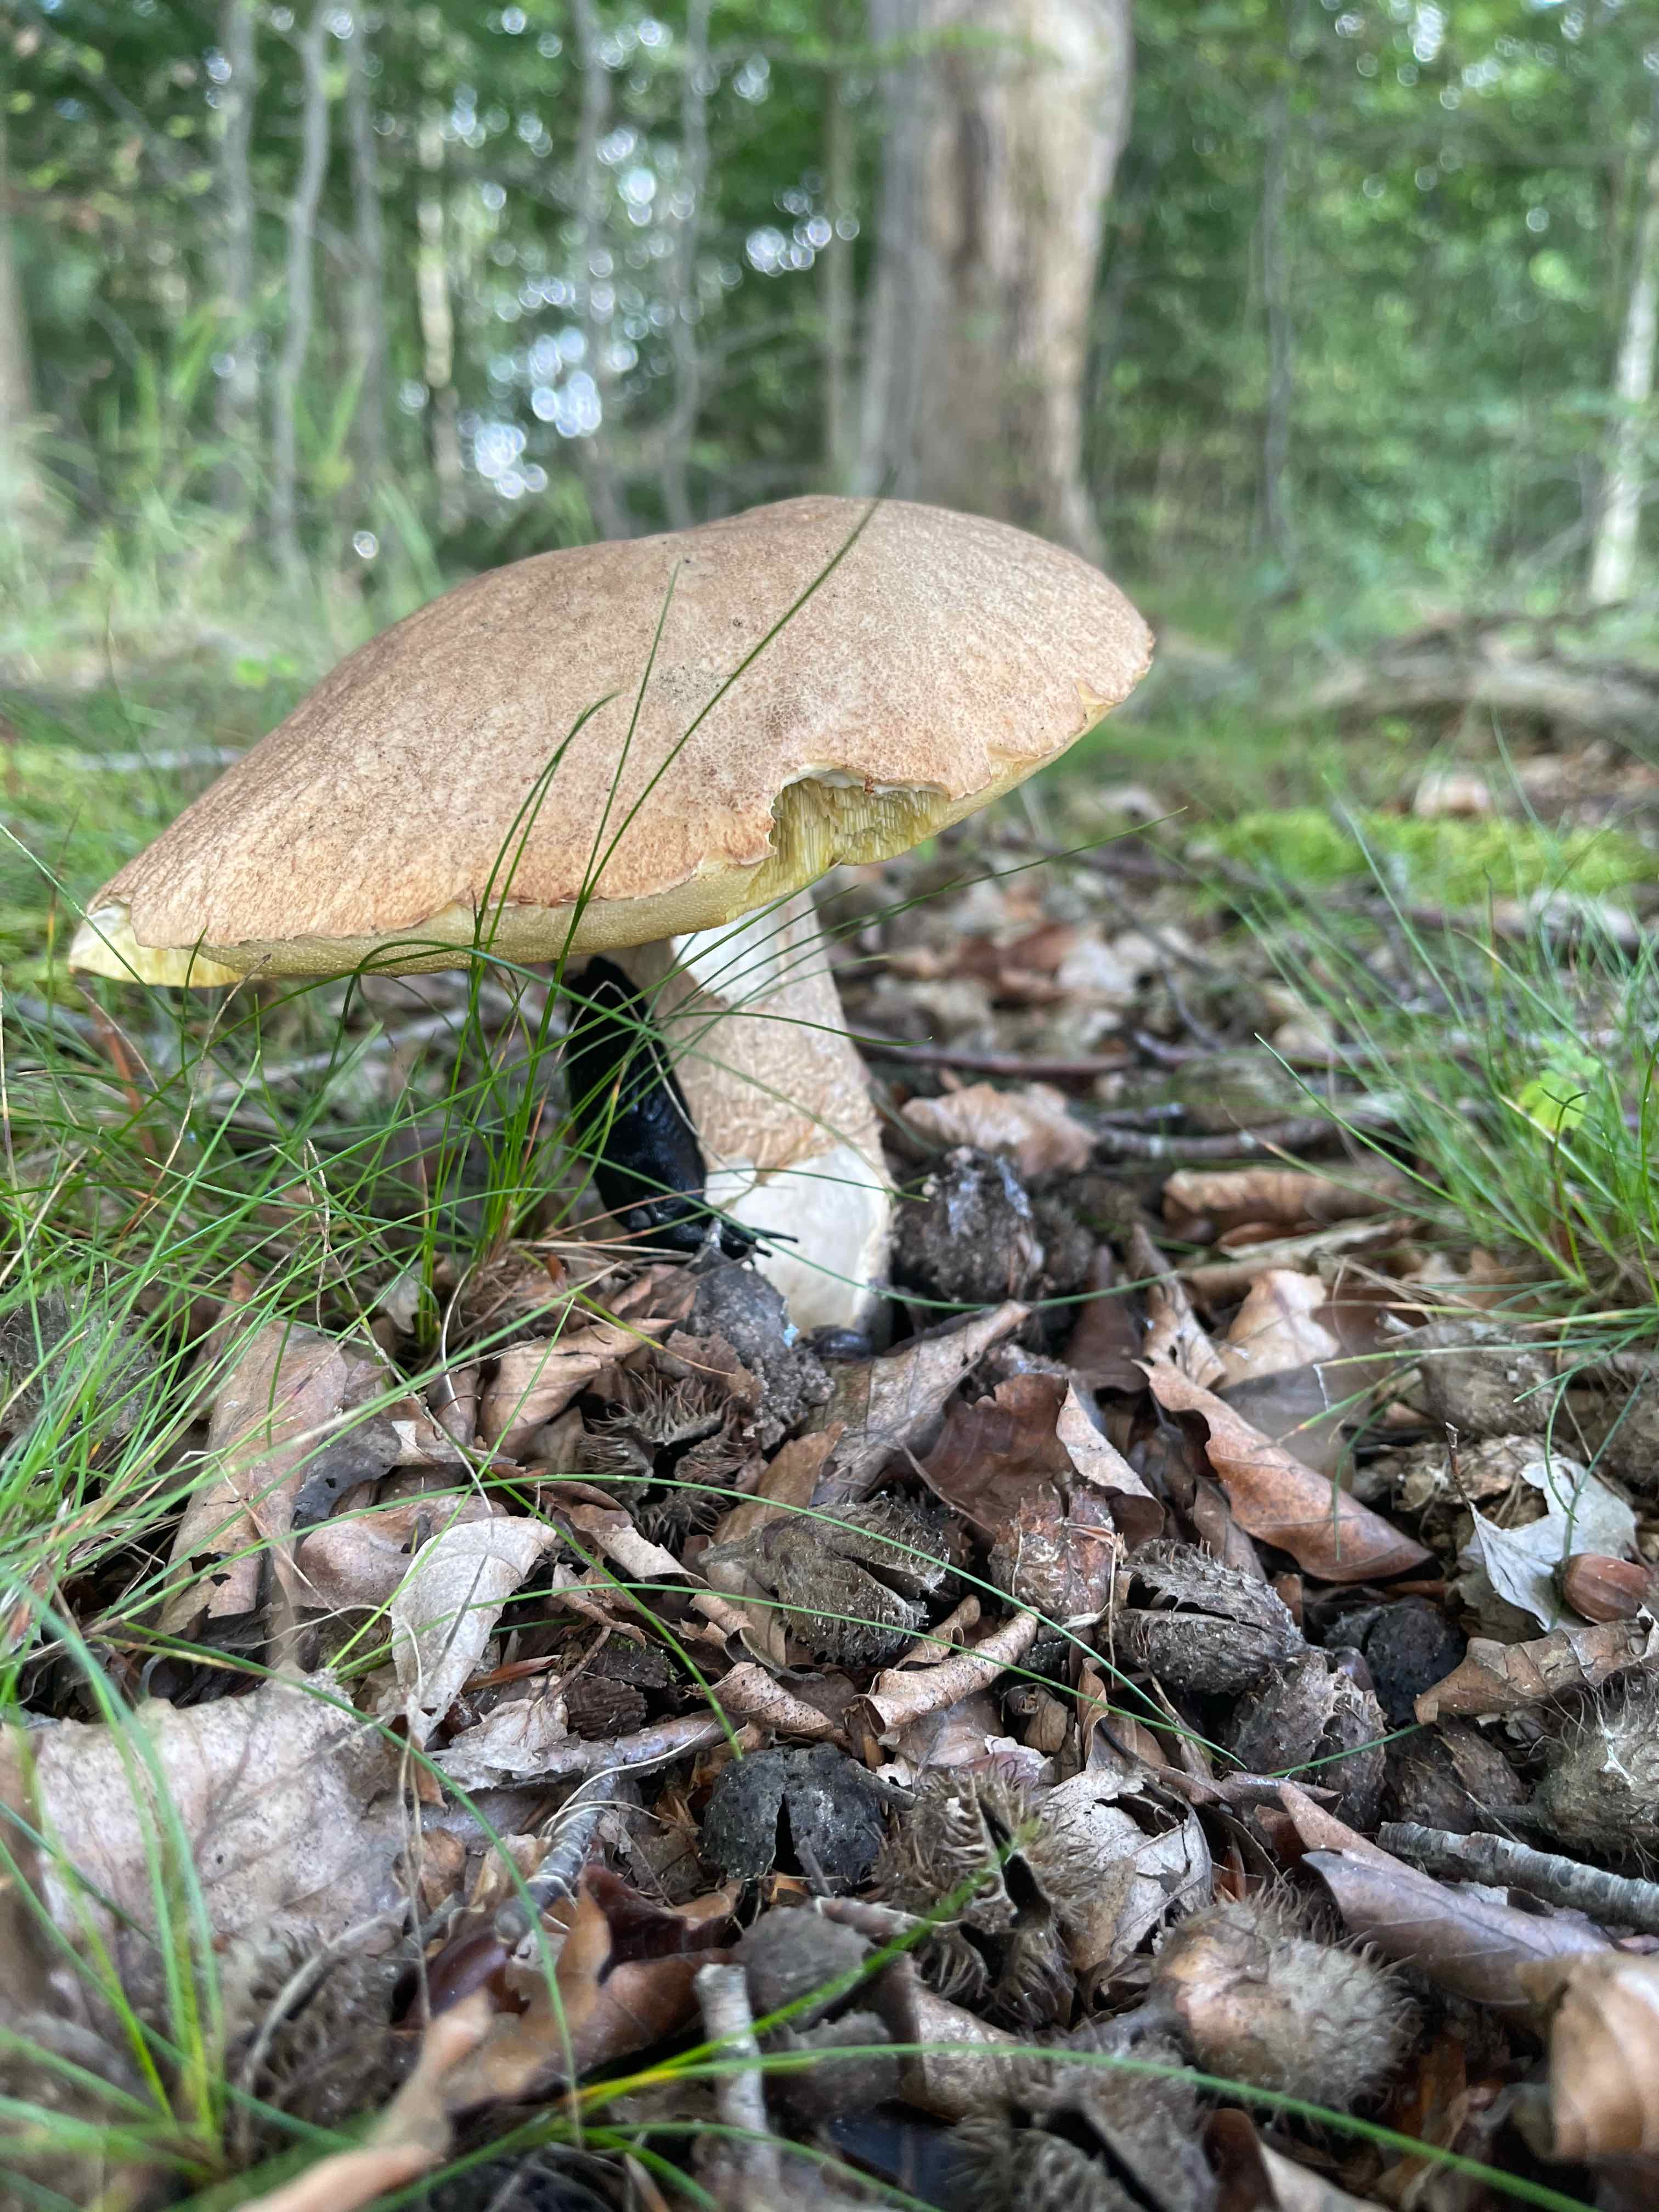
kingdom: Fungi
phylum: Basidiomycota
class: Agaricomycetes
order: Boletales
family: Boletaceae
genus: Boletus
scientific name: Boletus reticulatus
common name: sommer-rørhat
